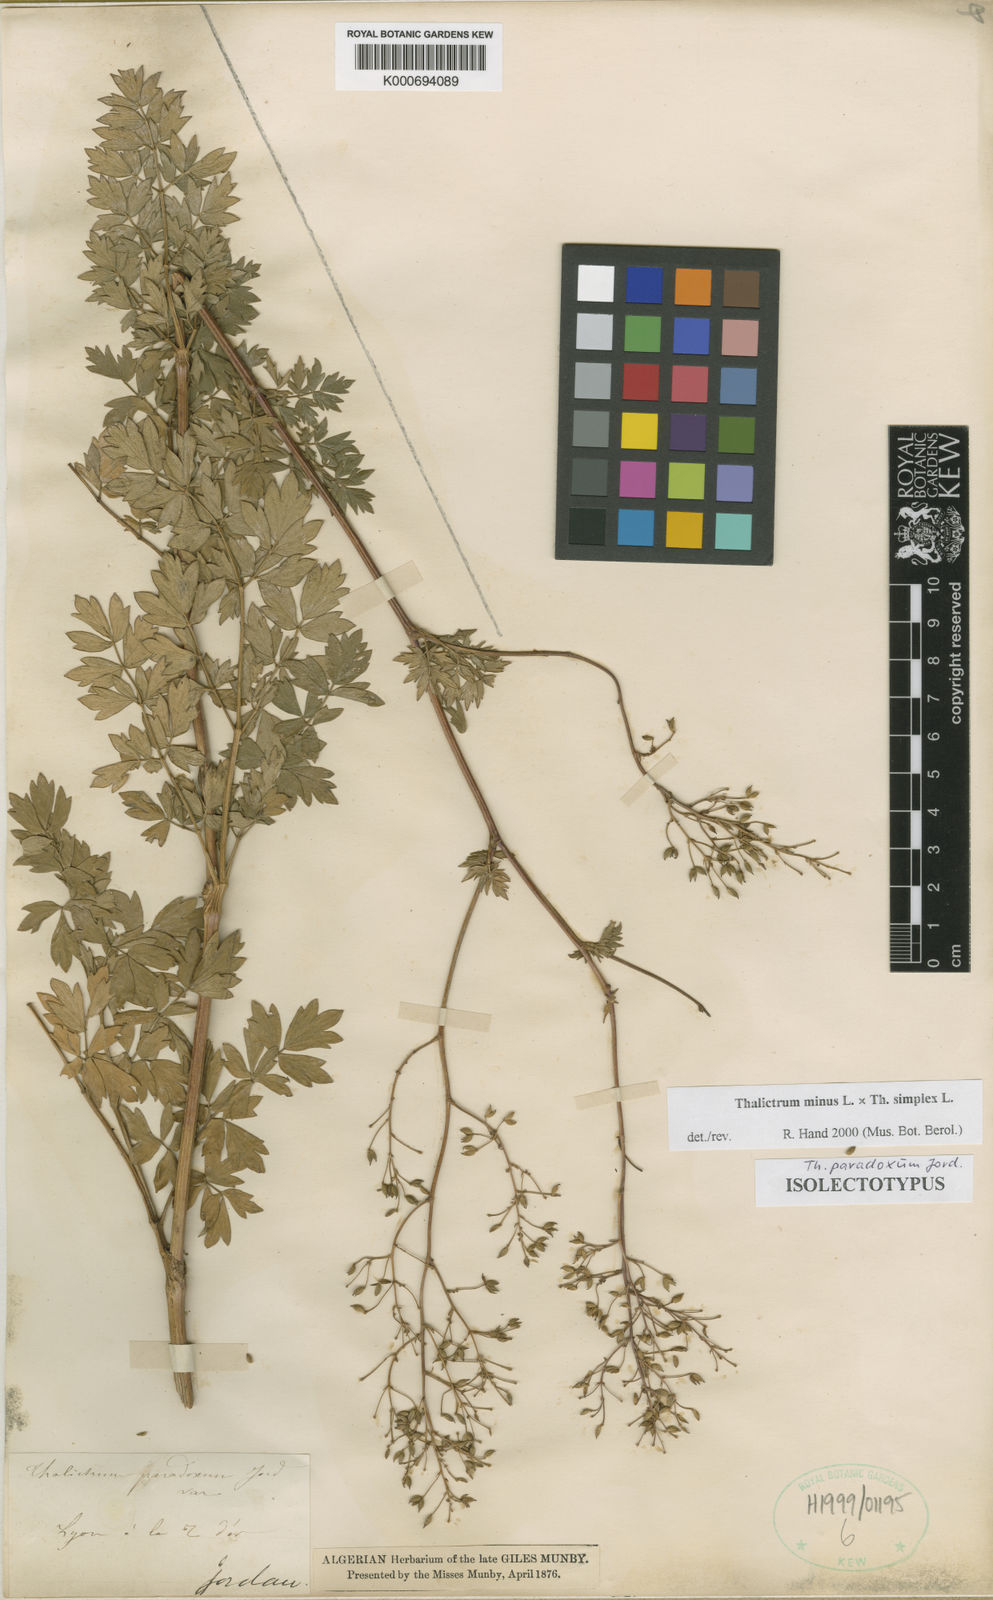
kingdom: Plantae
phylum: Tracheophyta
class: Magnoliopsida
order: Ranunculales
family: Ranunculaceae
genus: Thalictrum
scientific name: Thalictrum minus
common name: Lesser meadow-rue
